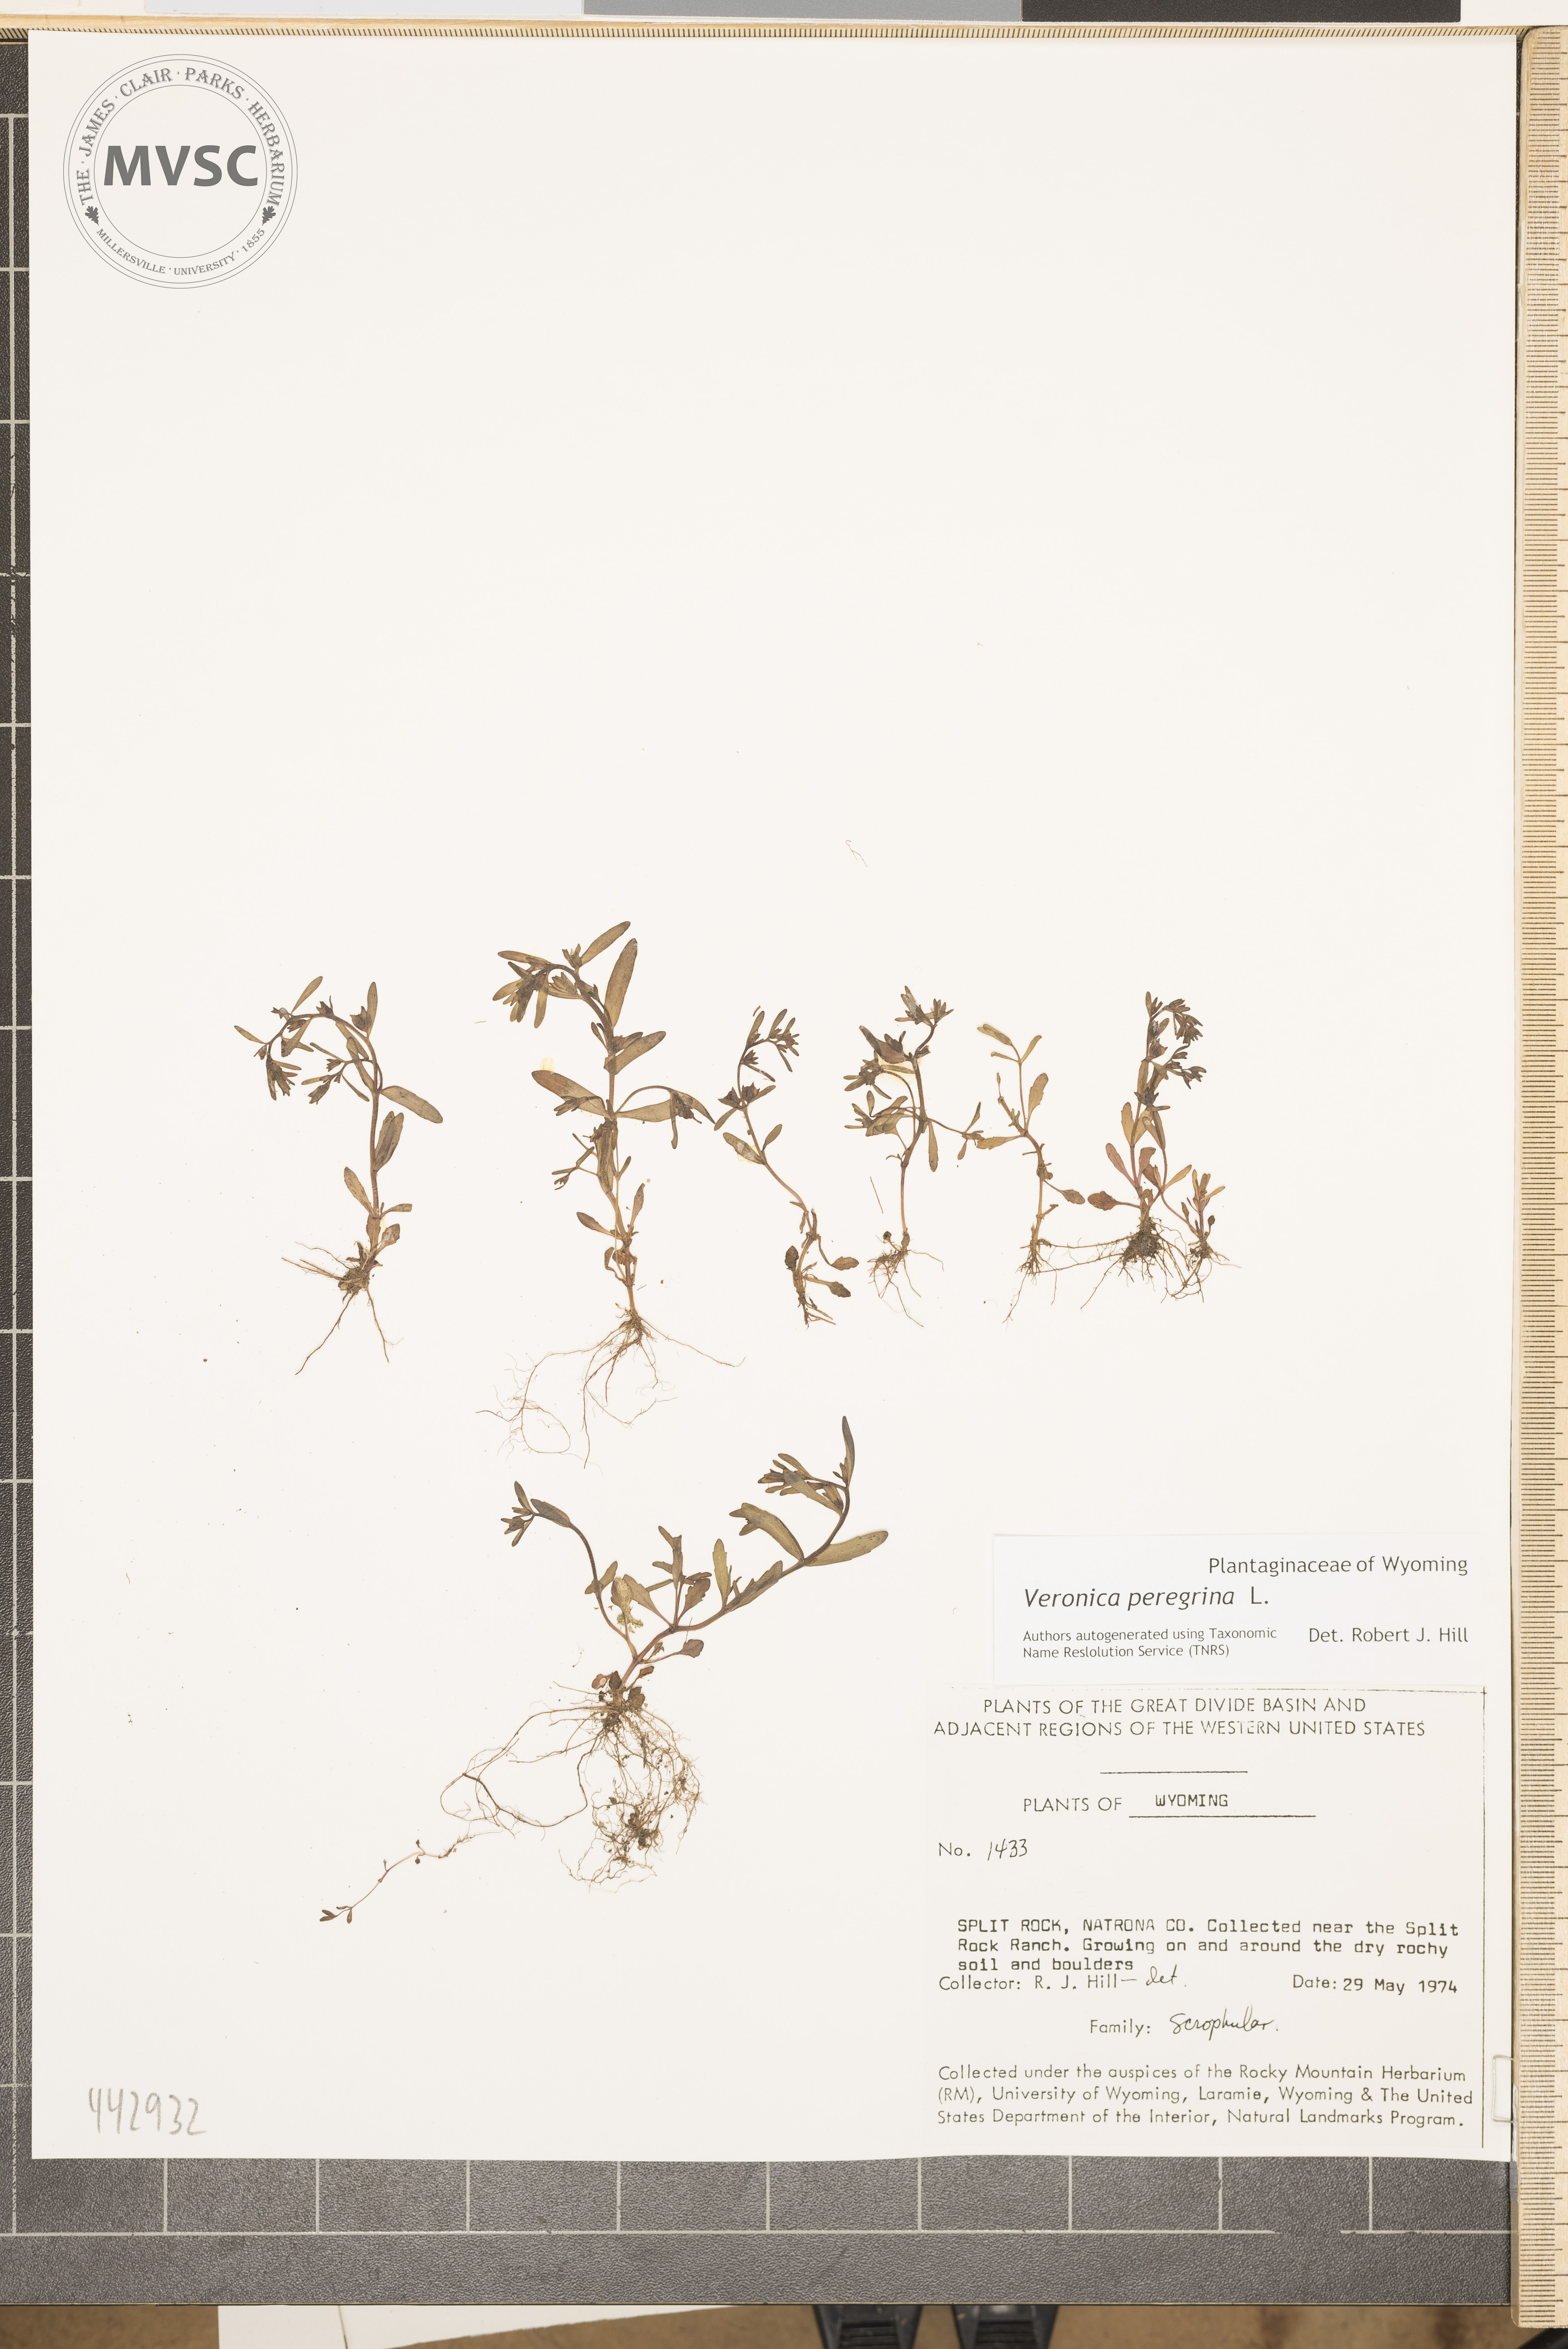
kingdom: Plantae
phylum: Tracheophyta
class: Magnoliopsida
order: Lamiales
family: Plantaginaceae
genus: Veronica
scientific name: Veronica peregrina
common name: Neckweed
